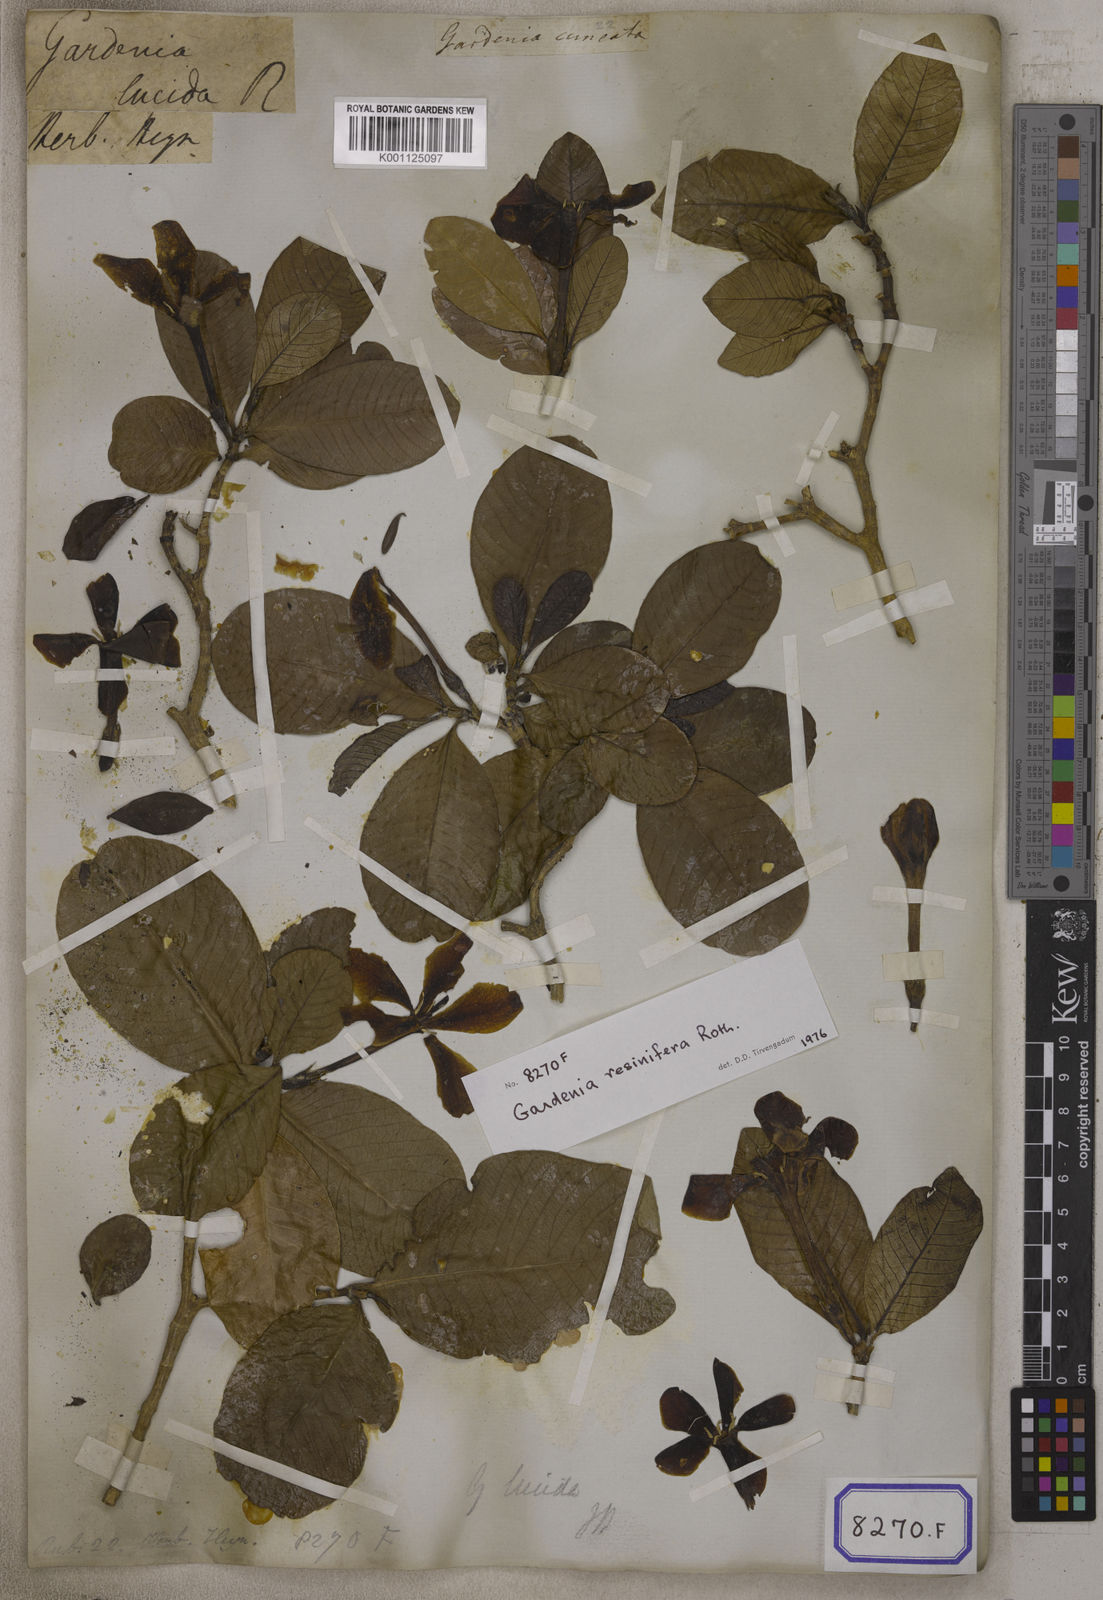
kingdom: Plantae
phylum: Tracheophyta
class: Magnoliopsida
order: Gentianales
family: Rubiaceae
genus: Gardenia
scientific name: Gardenia resinifera
